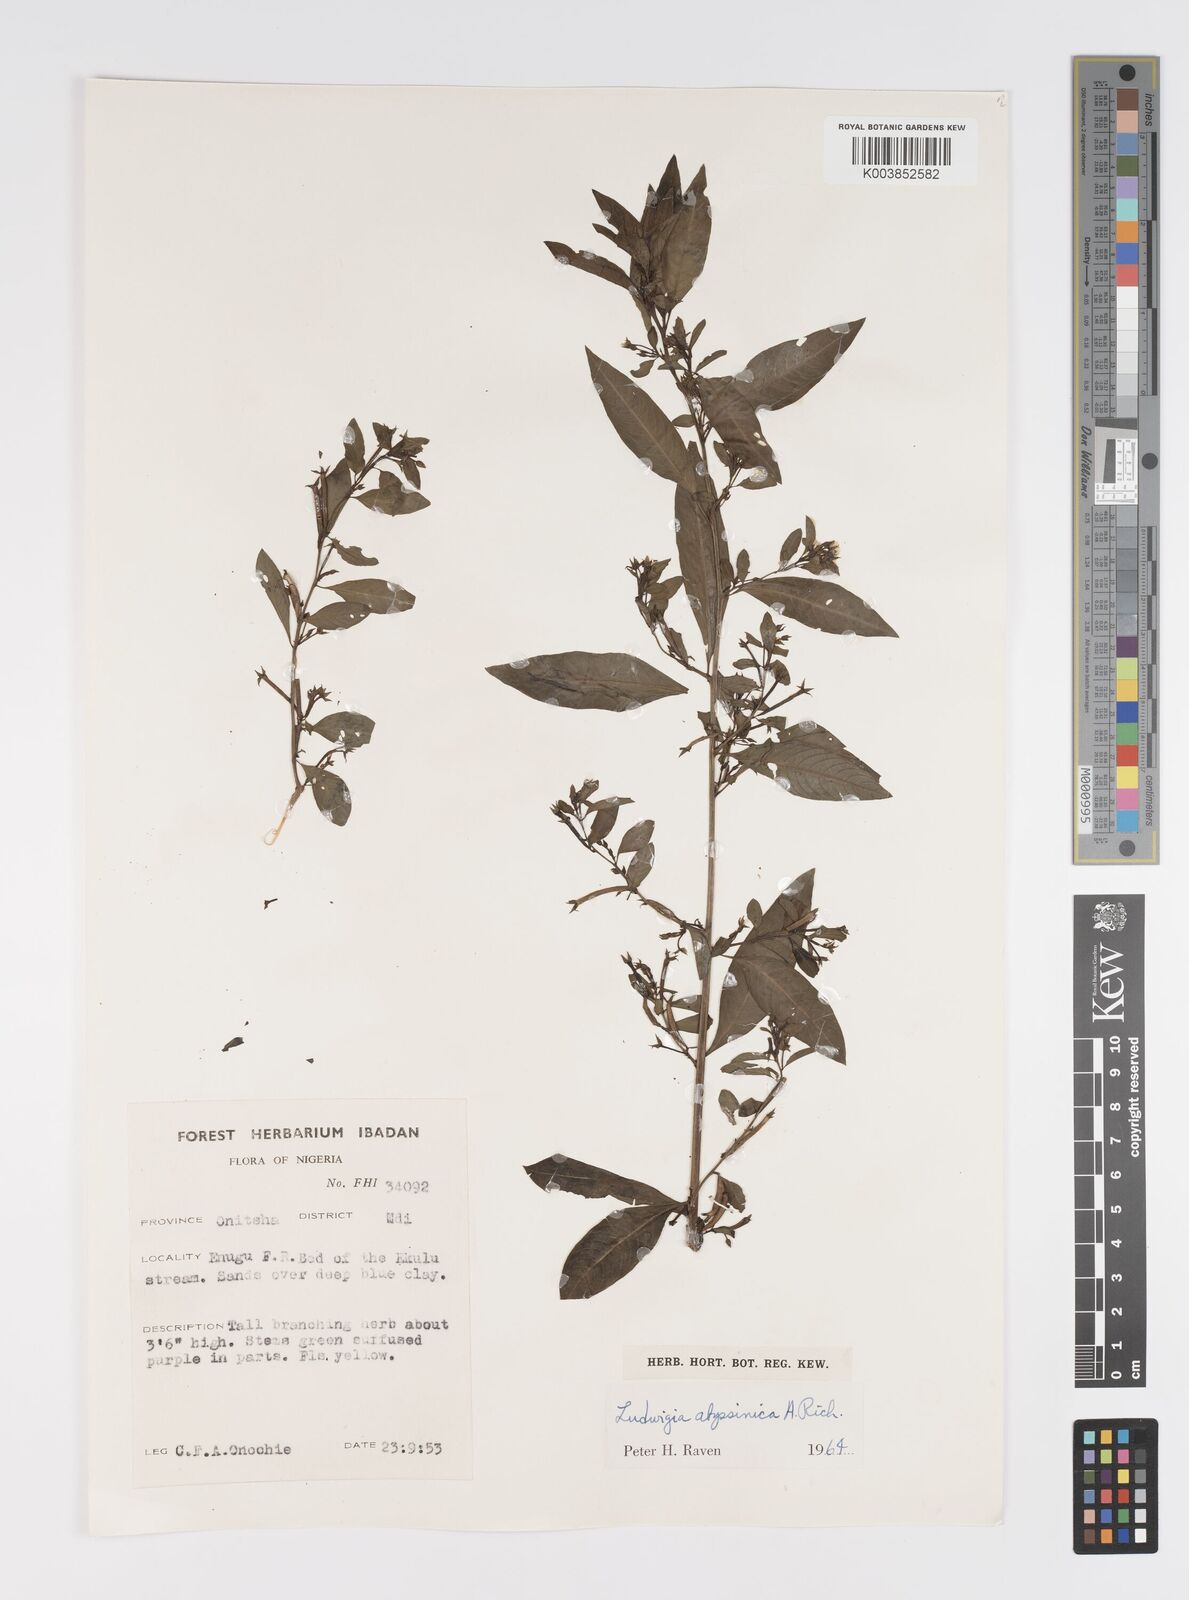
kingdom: Plantae
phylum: Tracheophyta
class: Magnoliopsida
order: Myrtales
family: Onagraceae
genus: Ludwigia
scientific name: Ludwigia abyssinica
